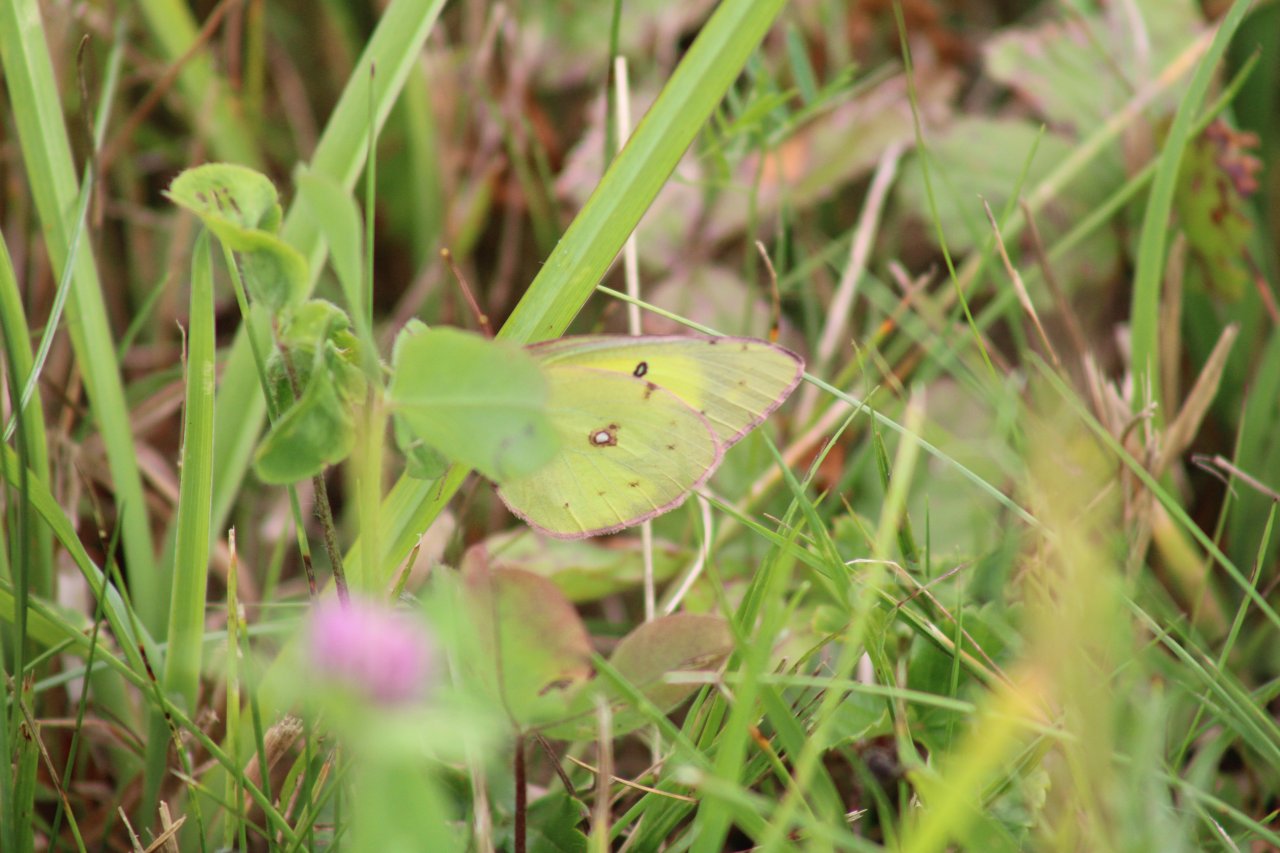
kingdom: Animalia
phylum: Arthropoda
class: Insecta
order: Lepidoptera
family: Pieridae
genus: Colias
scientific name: Colias philodice
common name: Clouded Sulphur
